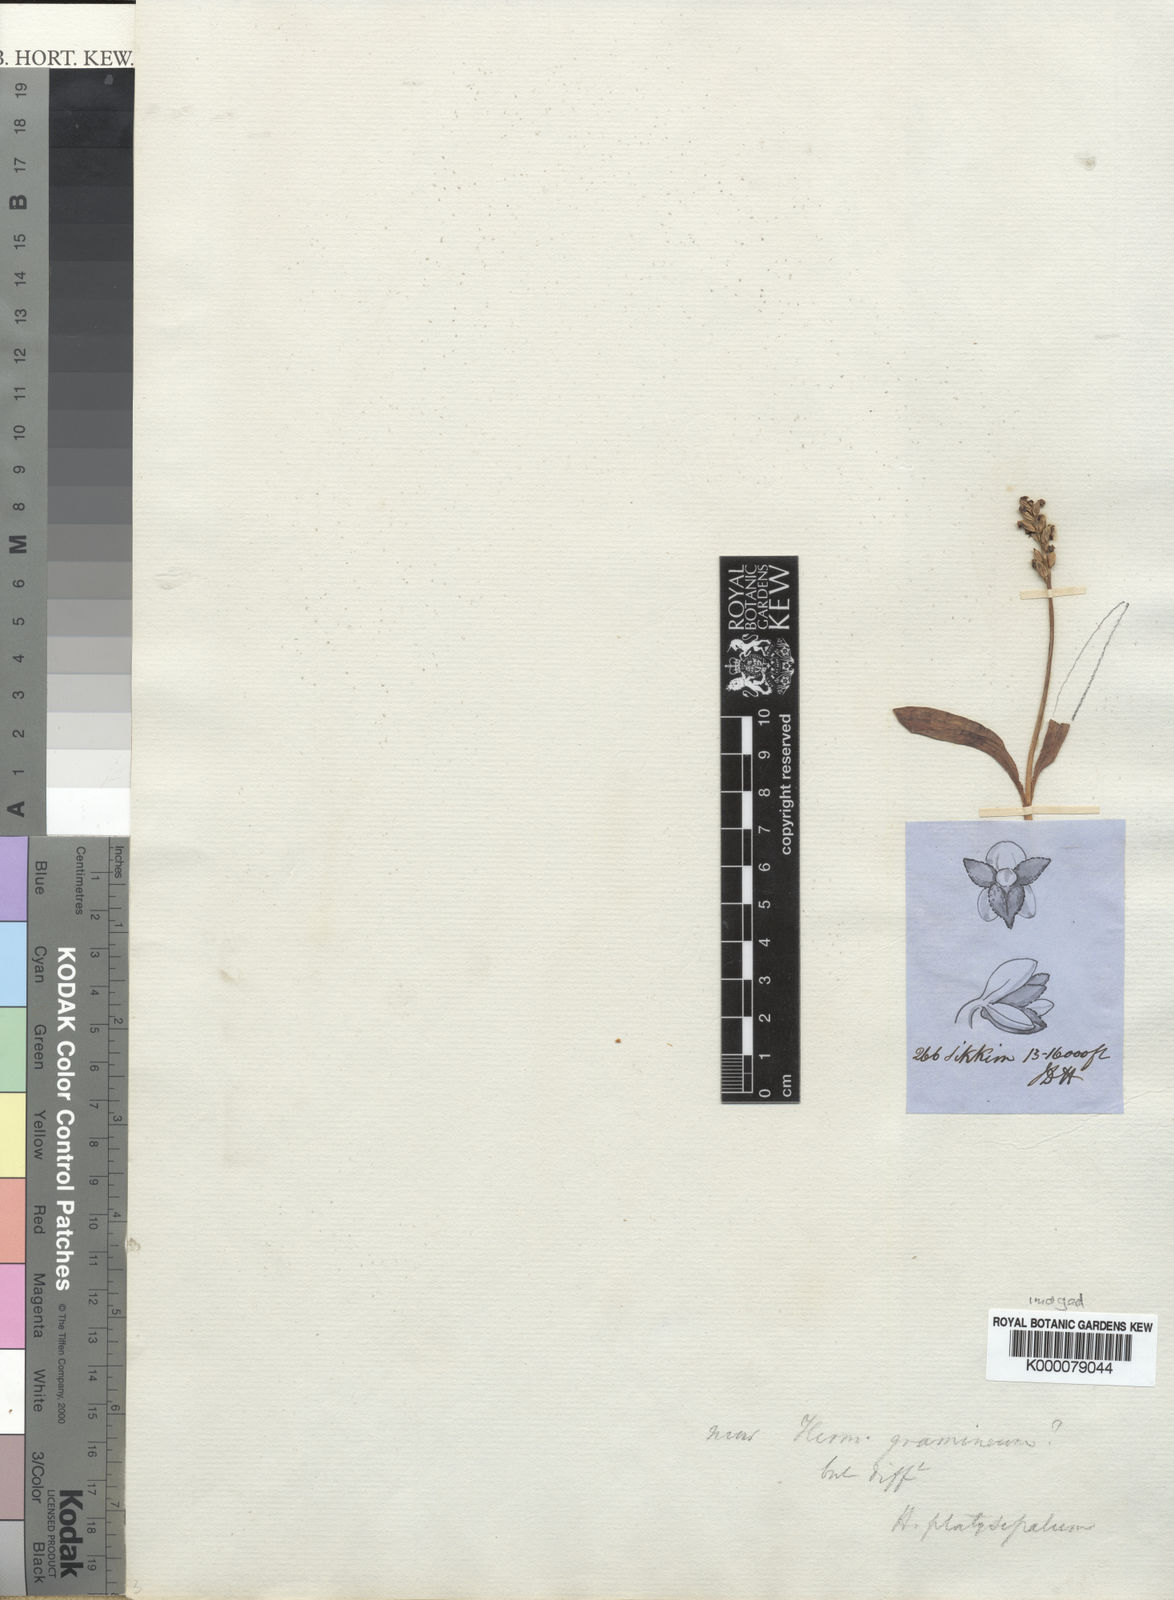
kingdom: Plantae
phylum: Tracheophyta
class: Liliopsida
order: Asparagales
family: Orchidaceae
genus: Herminium
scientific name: Herminium monophyllum
